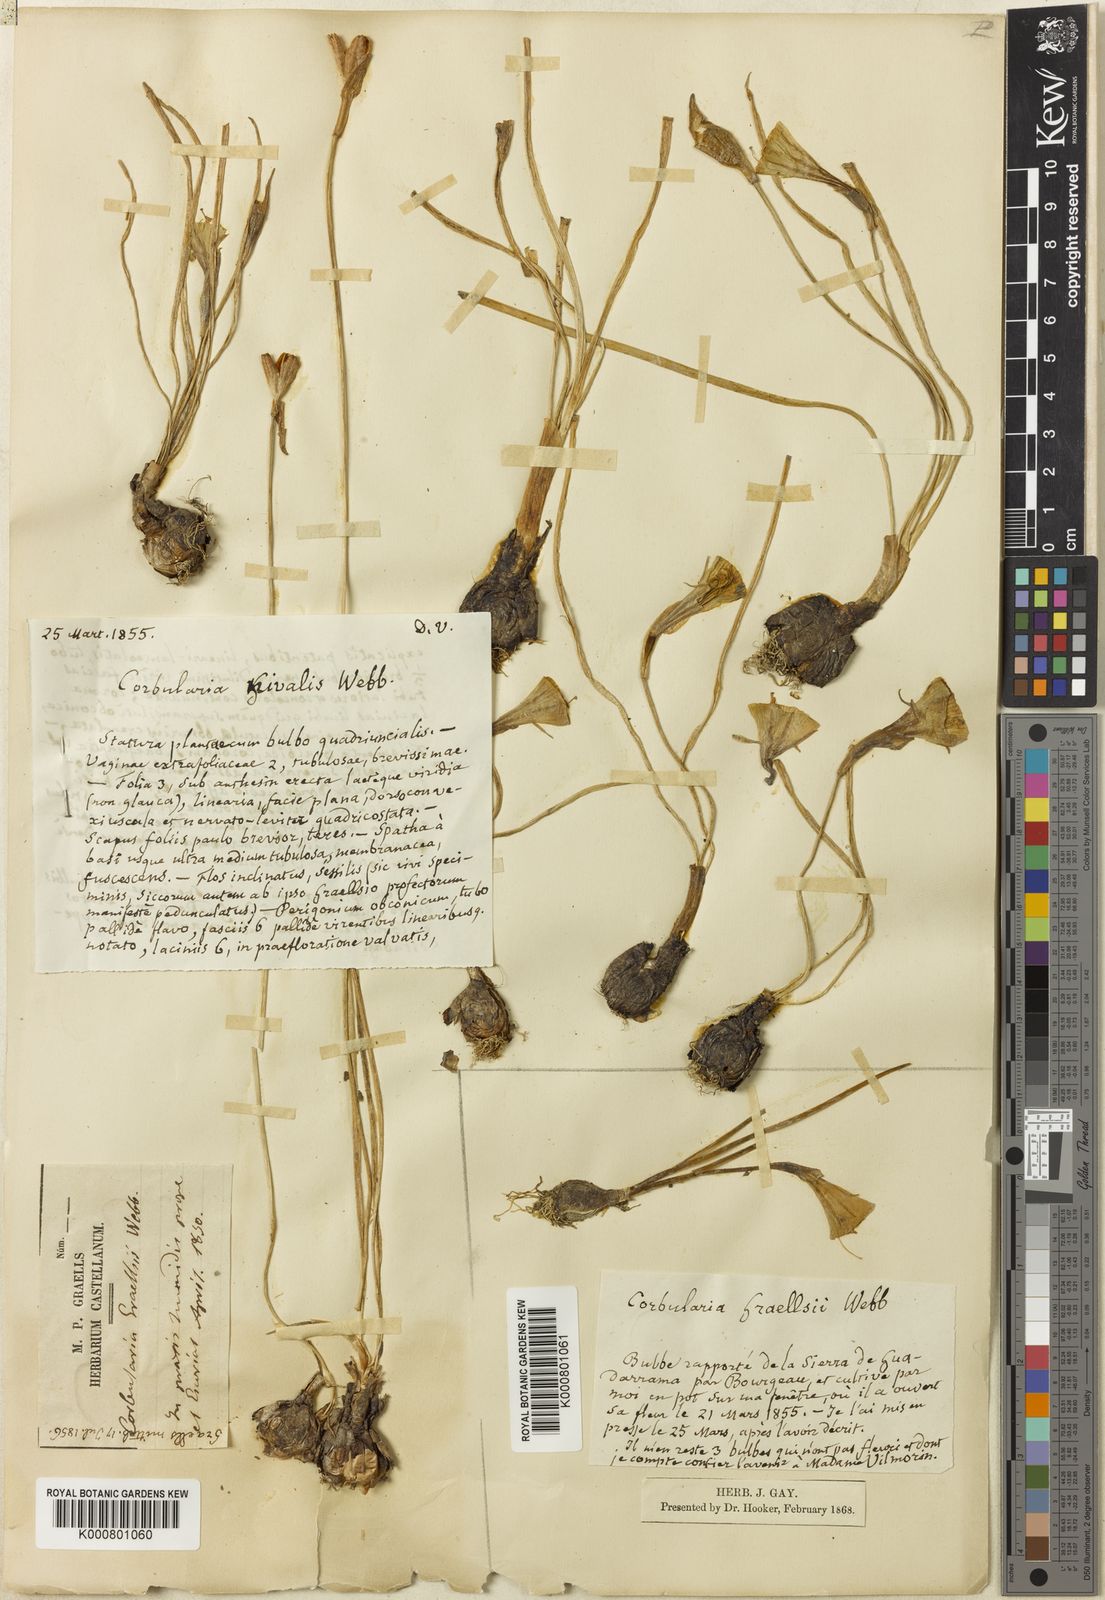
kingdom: Plantae
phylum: Tracheophyta
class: Liliopsida
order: Asparagales
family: Amaryllidaceae
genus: Narcissus
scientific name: Narcissus bulbocodium
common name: Hoop-petticoat daffodil
